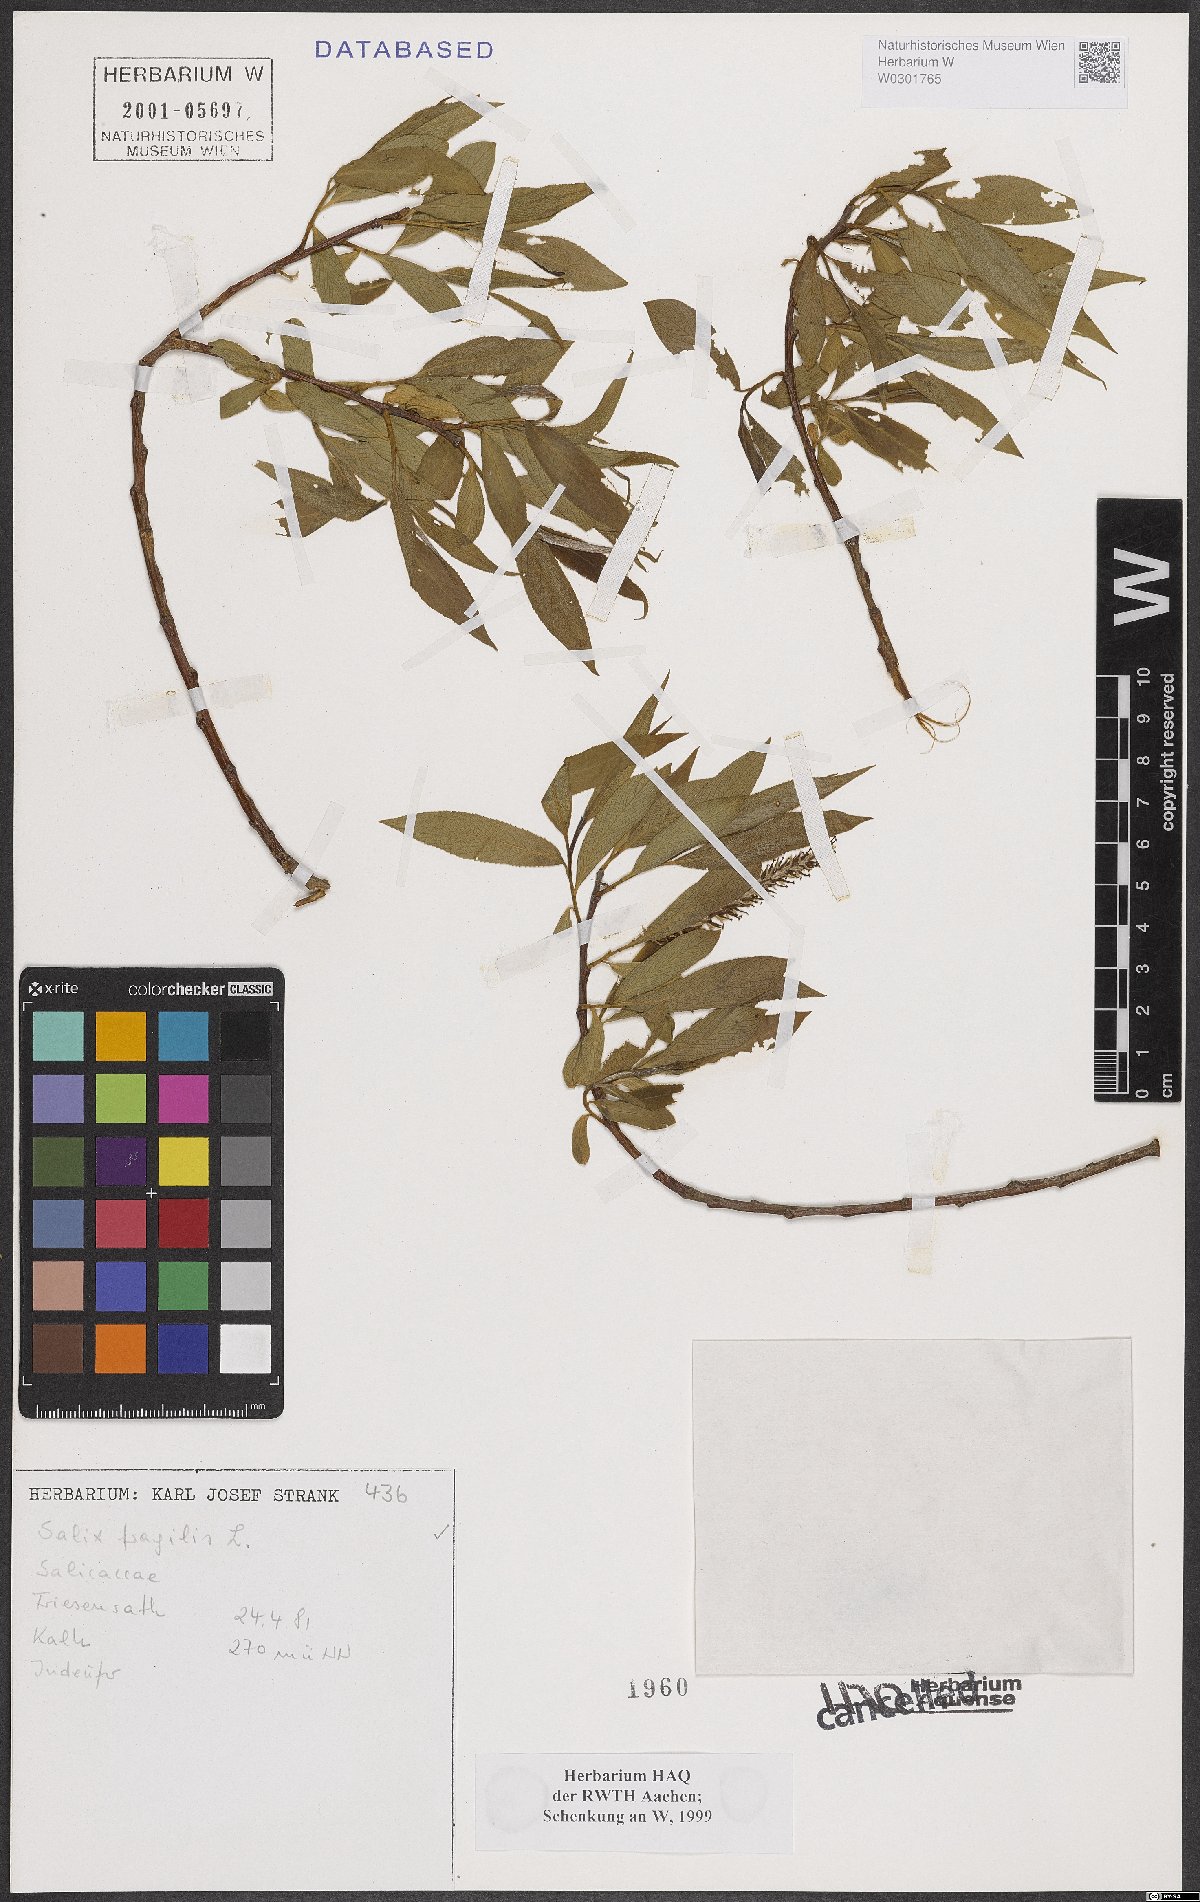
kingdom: Plantae
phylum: Tracheophyta
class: Magnoliopsida
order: Malpighiales
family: Salicaceae
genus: Salix
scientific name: Salix fragilis
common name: Crack willow
